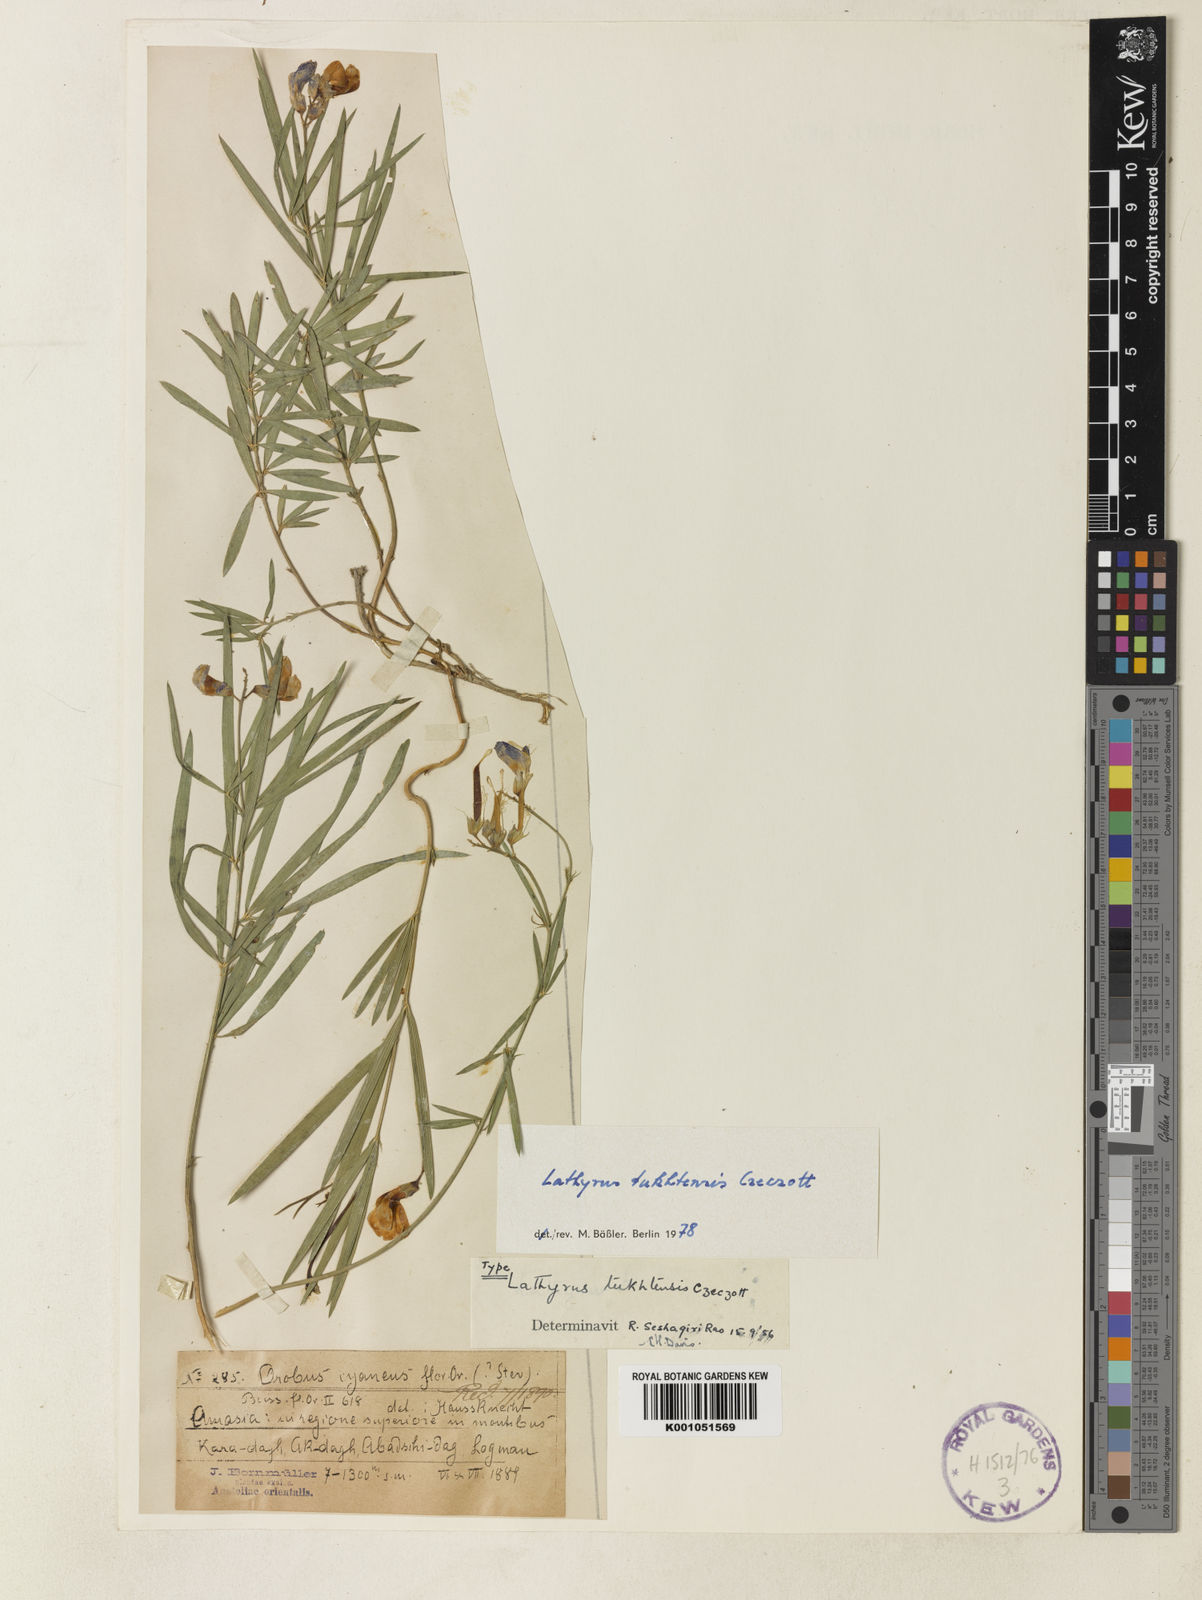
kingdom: Plantae
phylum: Tracheophyta
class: Magnoliopsida
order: Fabales
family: Fabaceae
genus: Lathyrus
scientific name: Lathyrus tukhtensis
